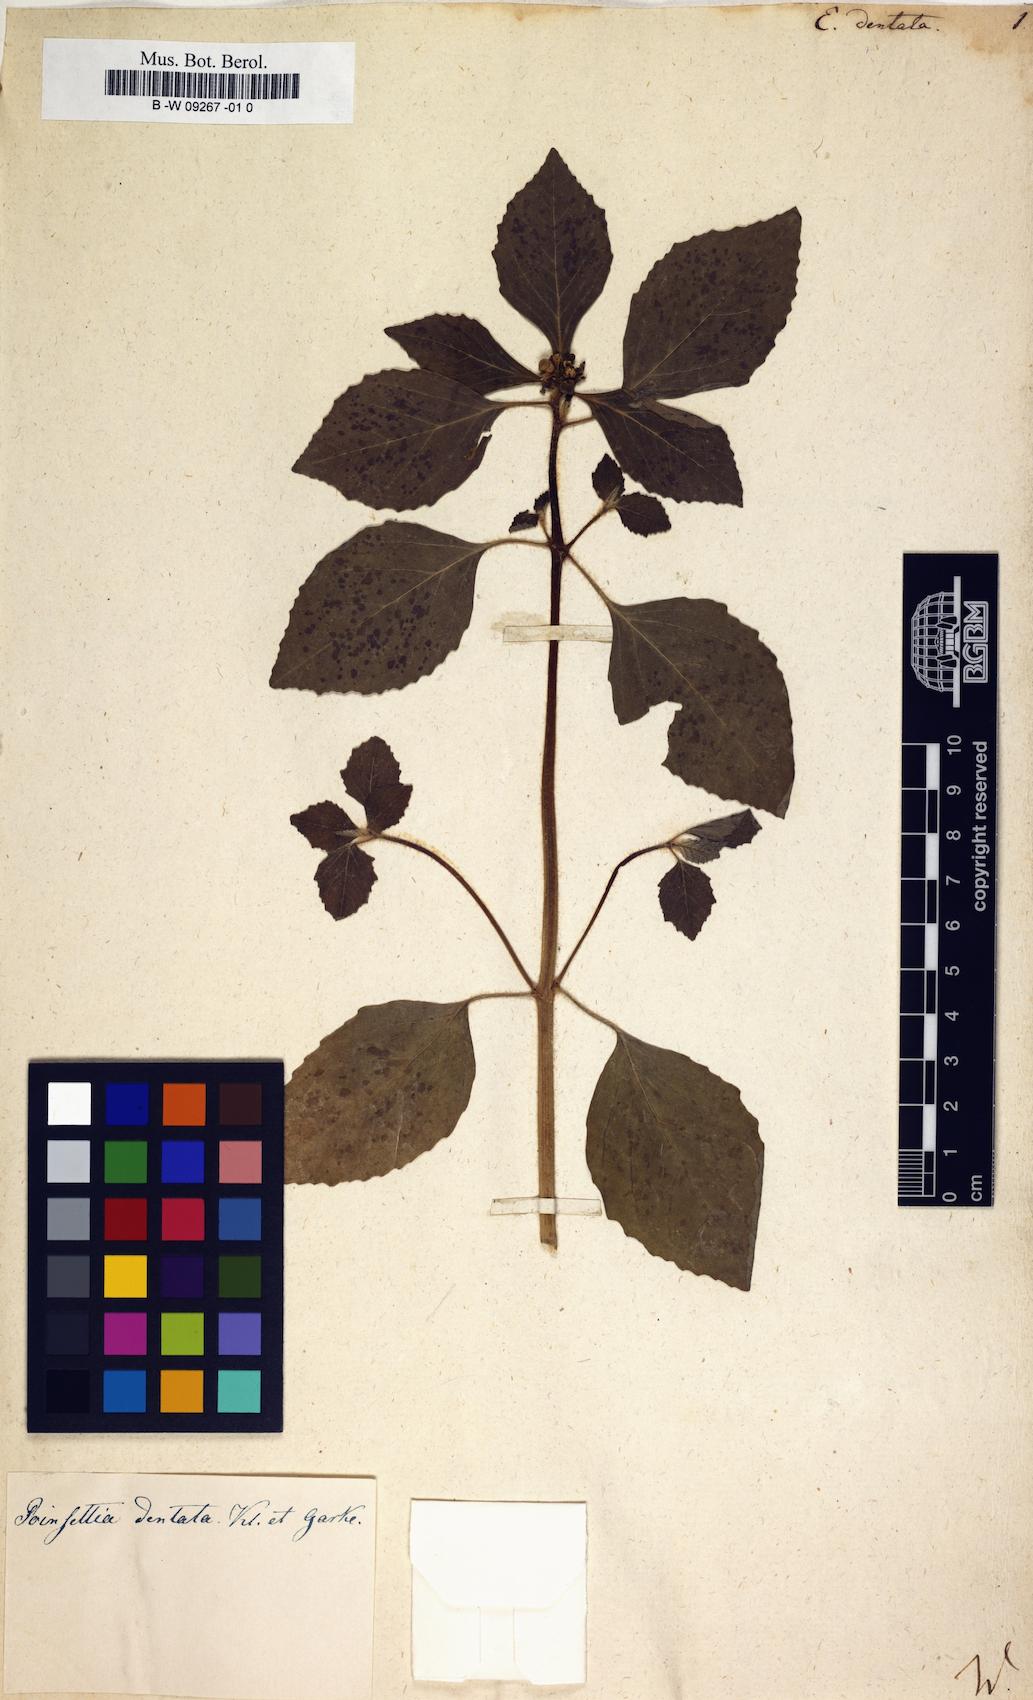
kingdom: Plantae
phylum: Tracheophyta
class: Magnoliopsida
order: Malpighiales
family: Euphorbiaceae
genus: Euphorbia
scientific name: Euphorbia dentata
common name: Dentate spurge
